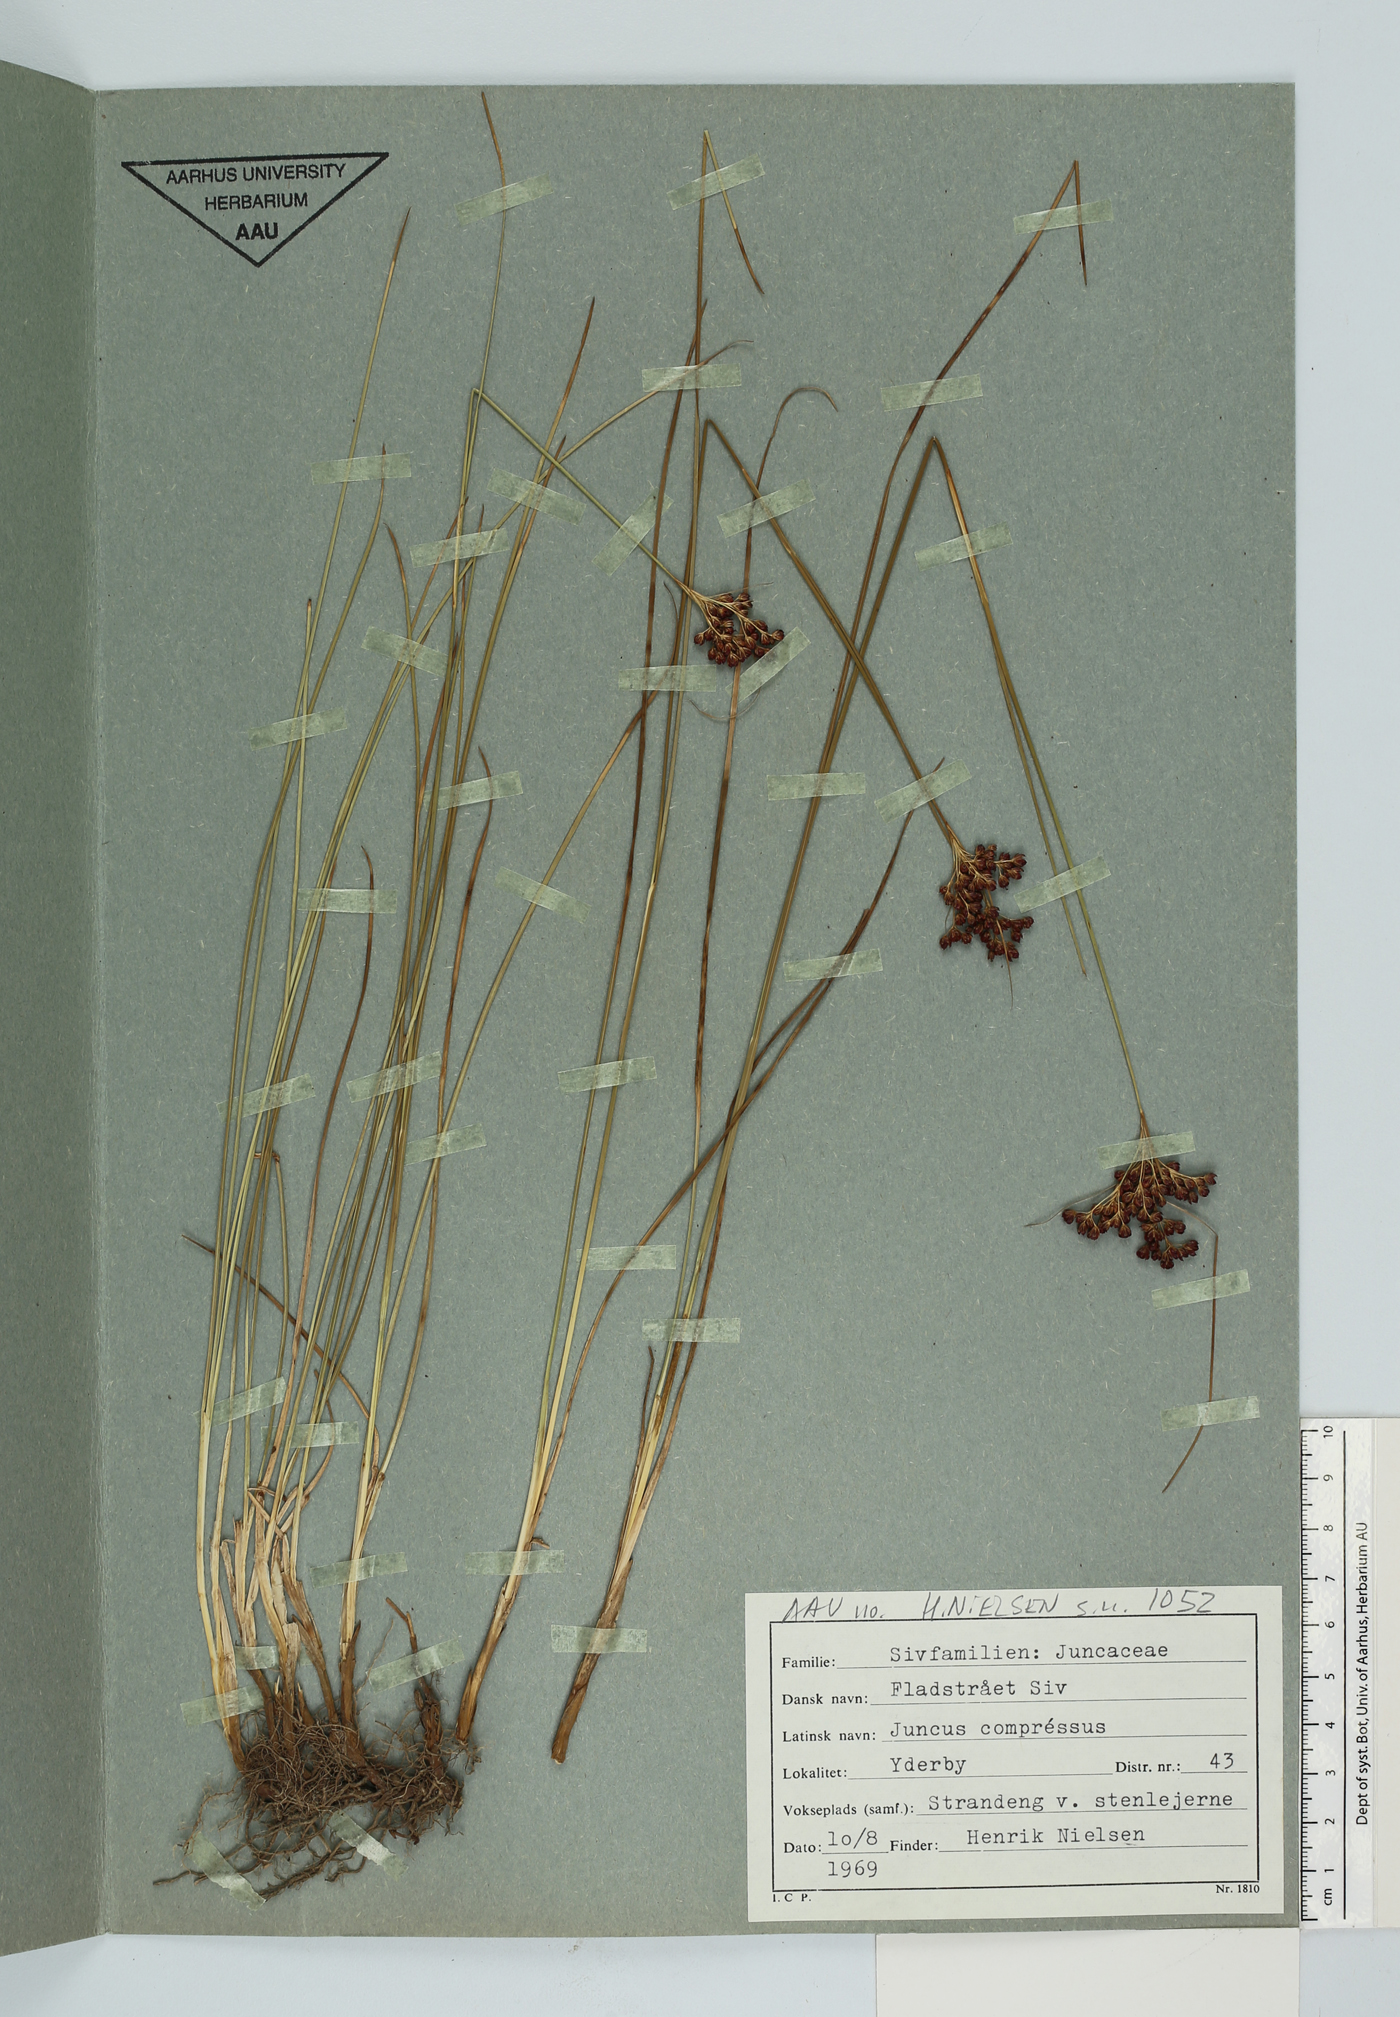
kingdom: Plantae
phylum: Tracheophyta
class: Liliopsida
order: Poales
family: Juncaceae
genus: Juncus
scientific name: Juncus compressus
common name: Round-fruited rush
